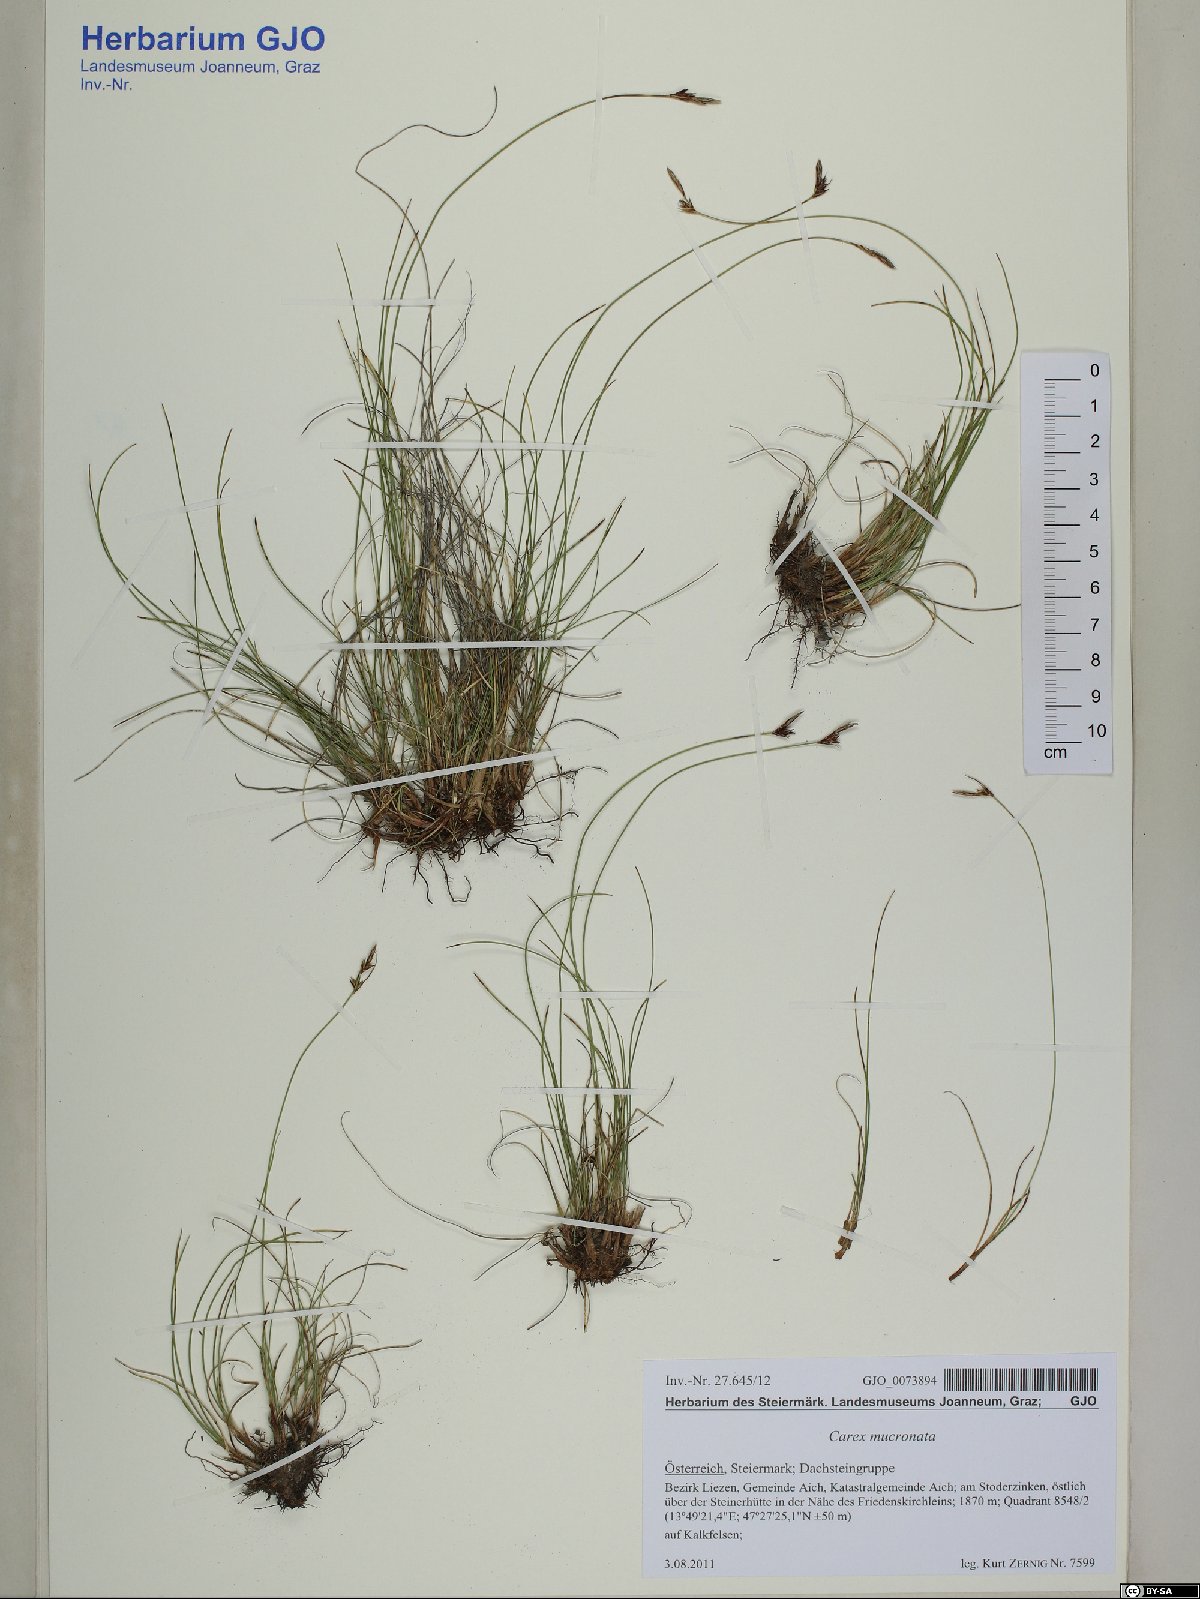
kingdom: Plantae
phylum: Tracheophyta
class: Liliopsida
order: Poales
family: Cyperaceae
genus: Carex
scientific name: Carex mucronata
